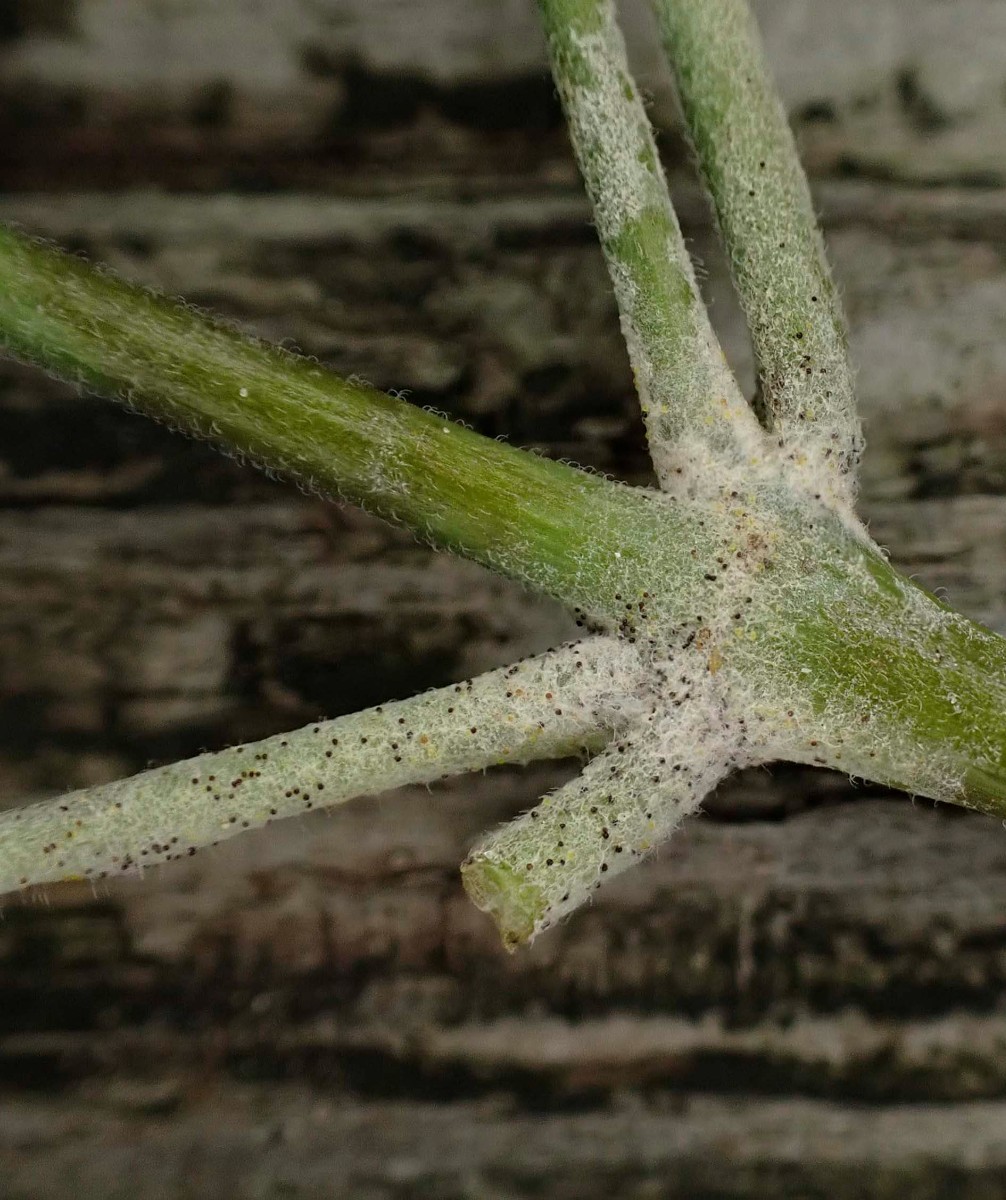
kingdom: Fungi
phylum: Ascomycota
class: Leotiomycetes
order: Helotiales
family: Erysiphaceae
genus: Erysiphe
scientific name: Erysiphe circaeae
